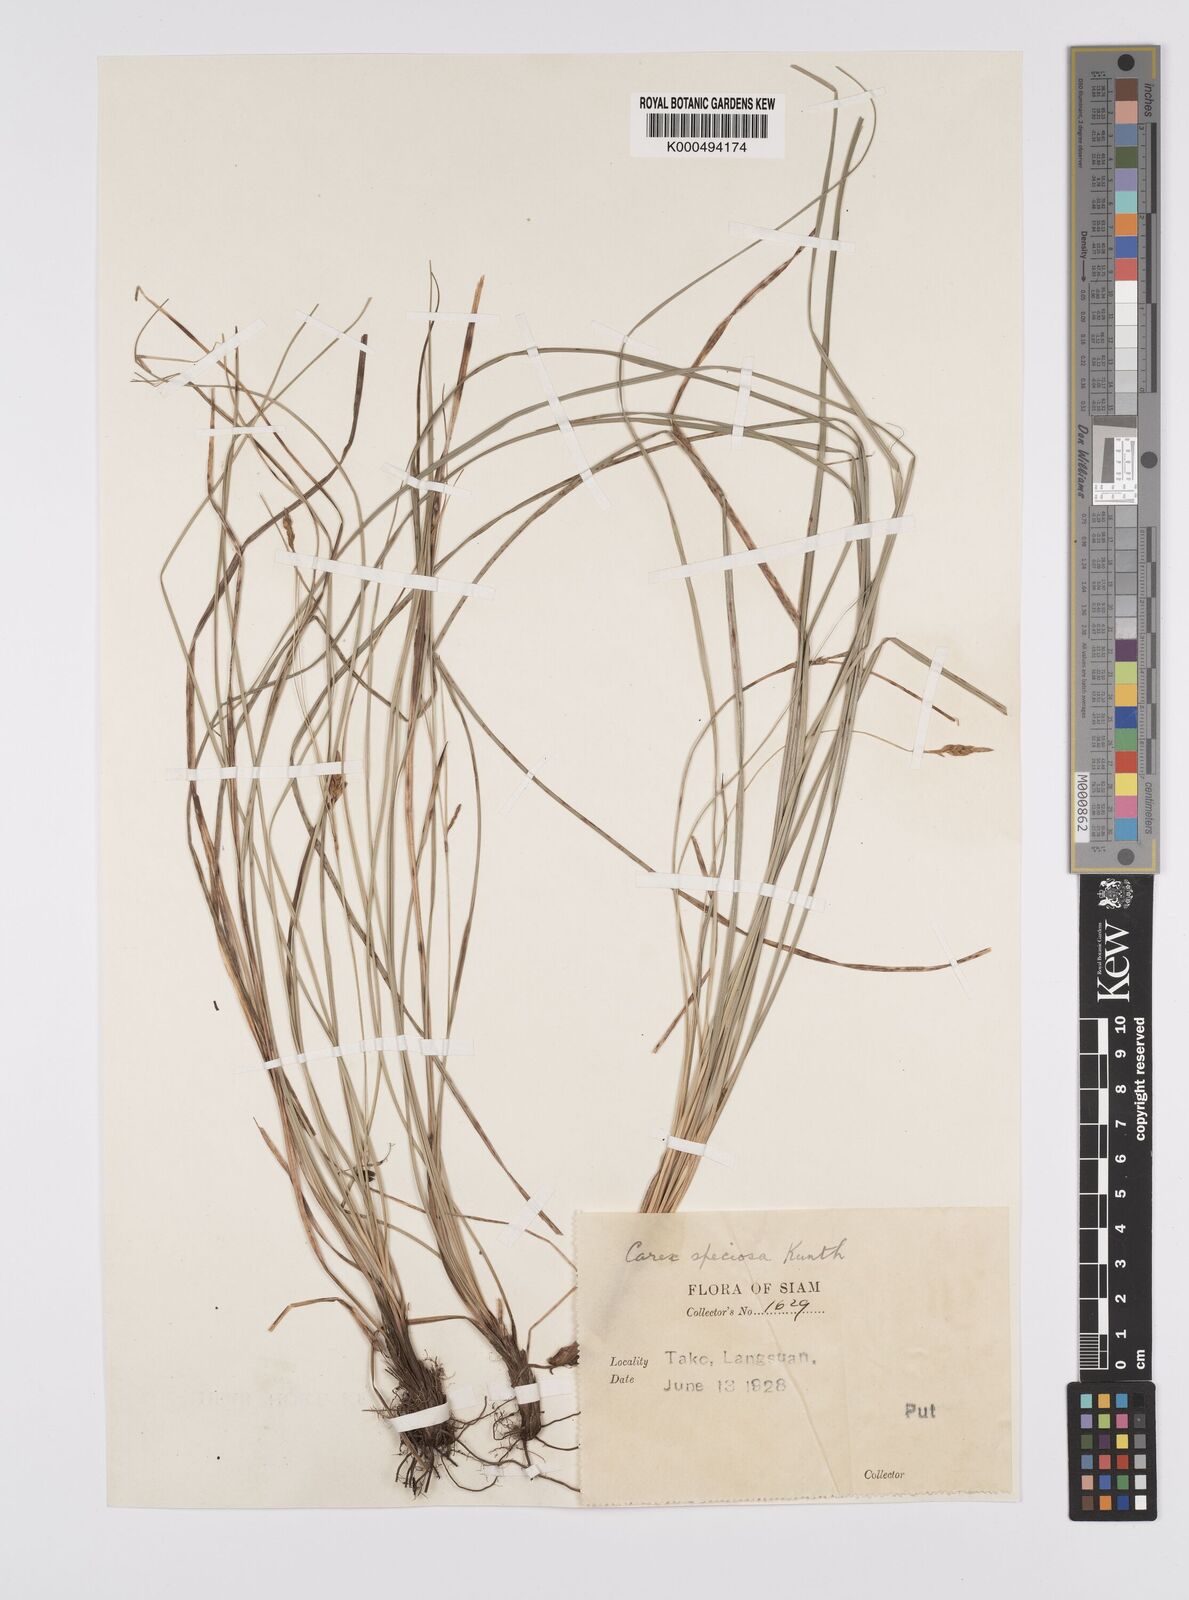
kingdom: Plantae
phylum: Tracheophyta
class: Liliopsida
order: Poales
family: Cyperaceae
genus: Carex
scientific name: Carex speciosa
